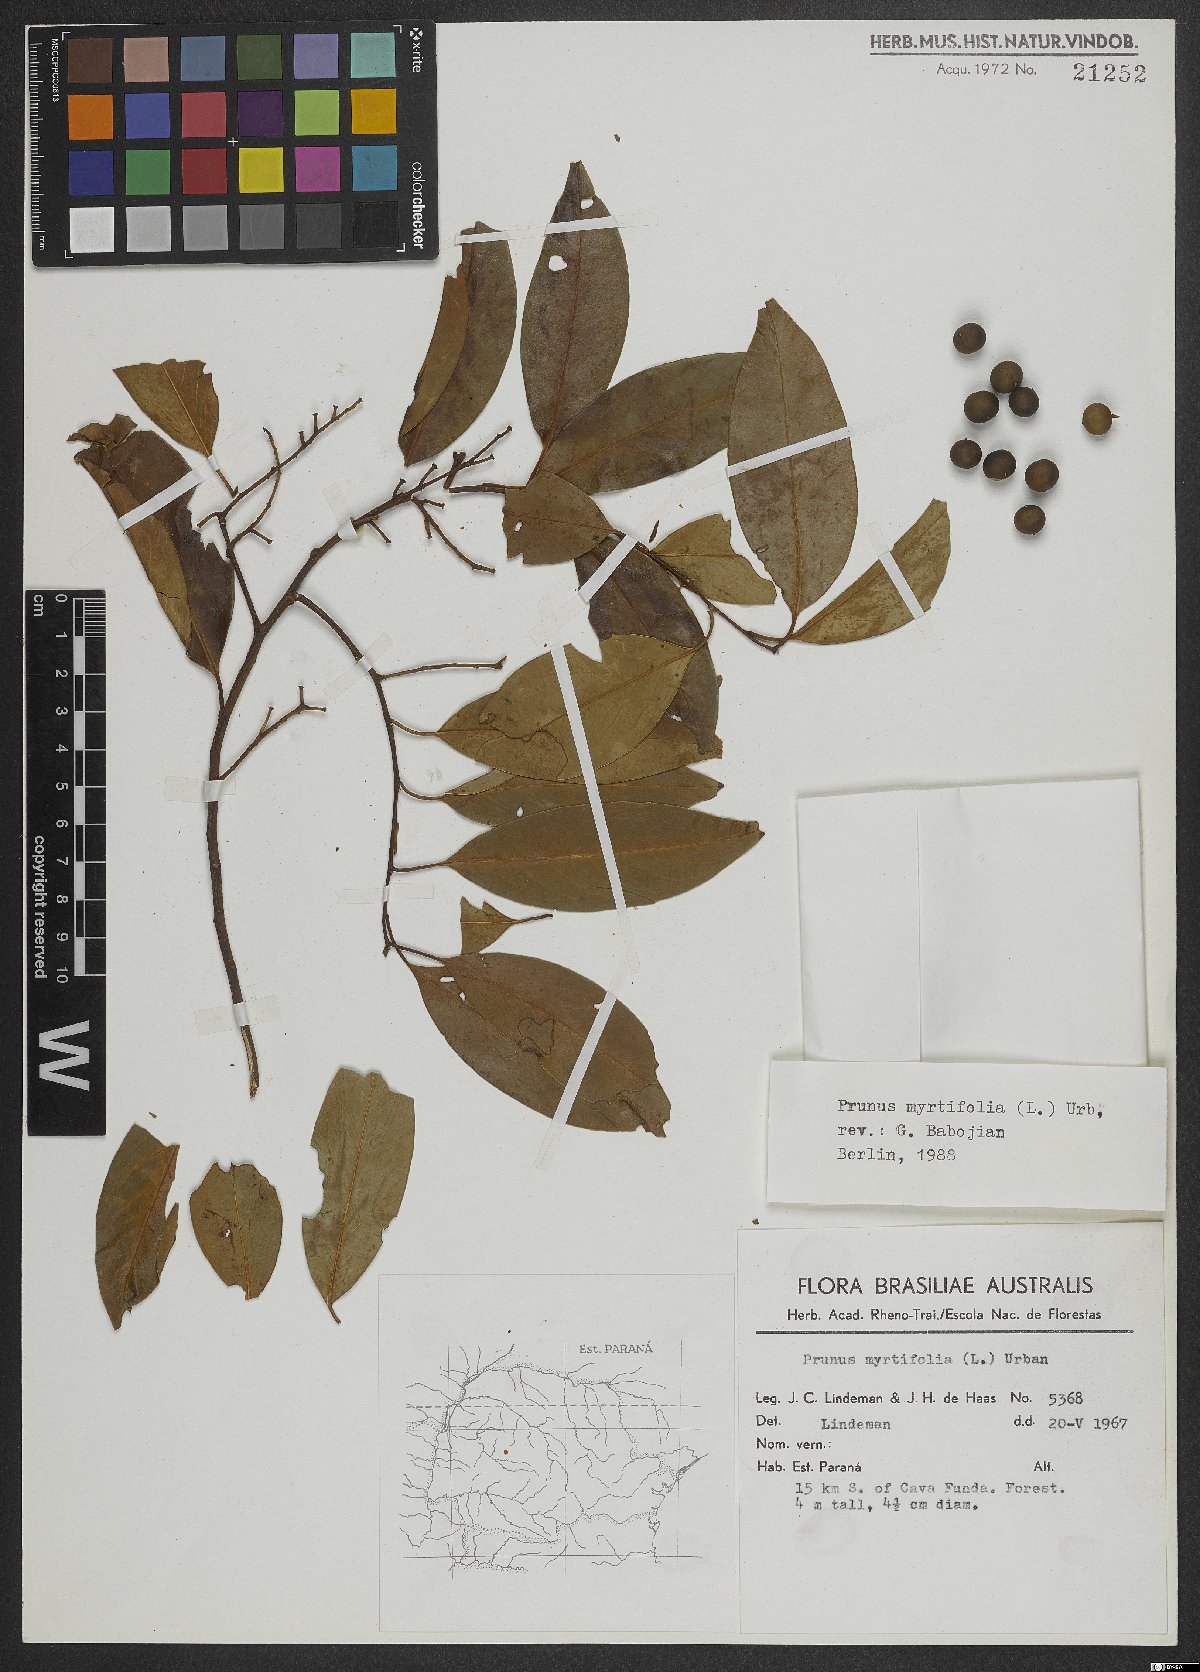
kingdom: Plantae
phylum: Tracheophyta
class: Magnoliopsida
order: Rosales
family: Rosaceae
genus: Prunus
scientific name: Prunus myrtifolia
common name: West indies cherry
